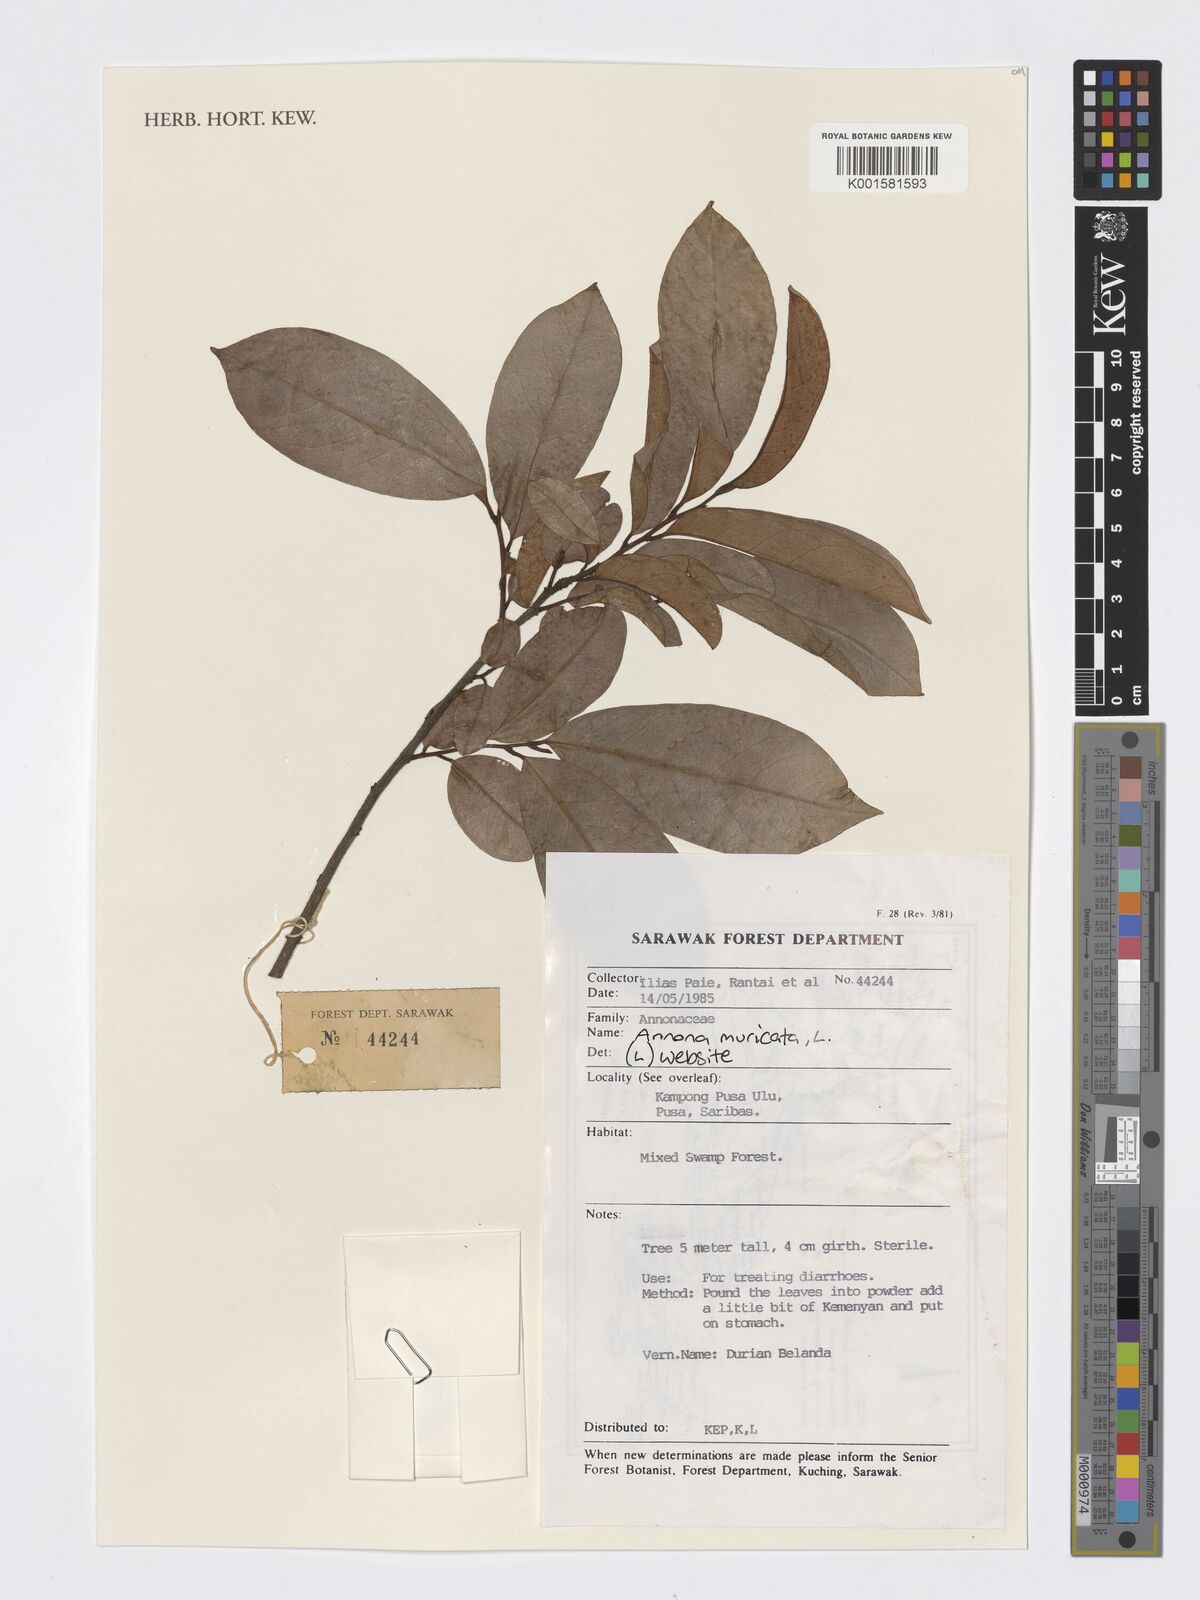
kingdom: Plantae
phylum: Tracheophyta
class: Magnoliopsida
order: Magnoliales
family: Annonaceae
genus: Annona
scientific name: Annona muricata
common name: Soursop
